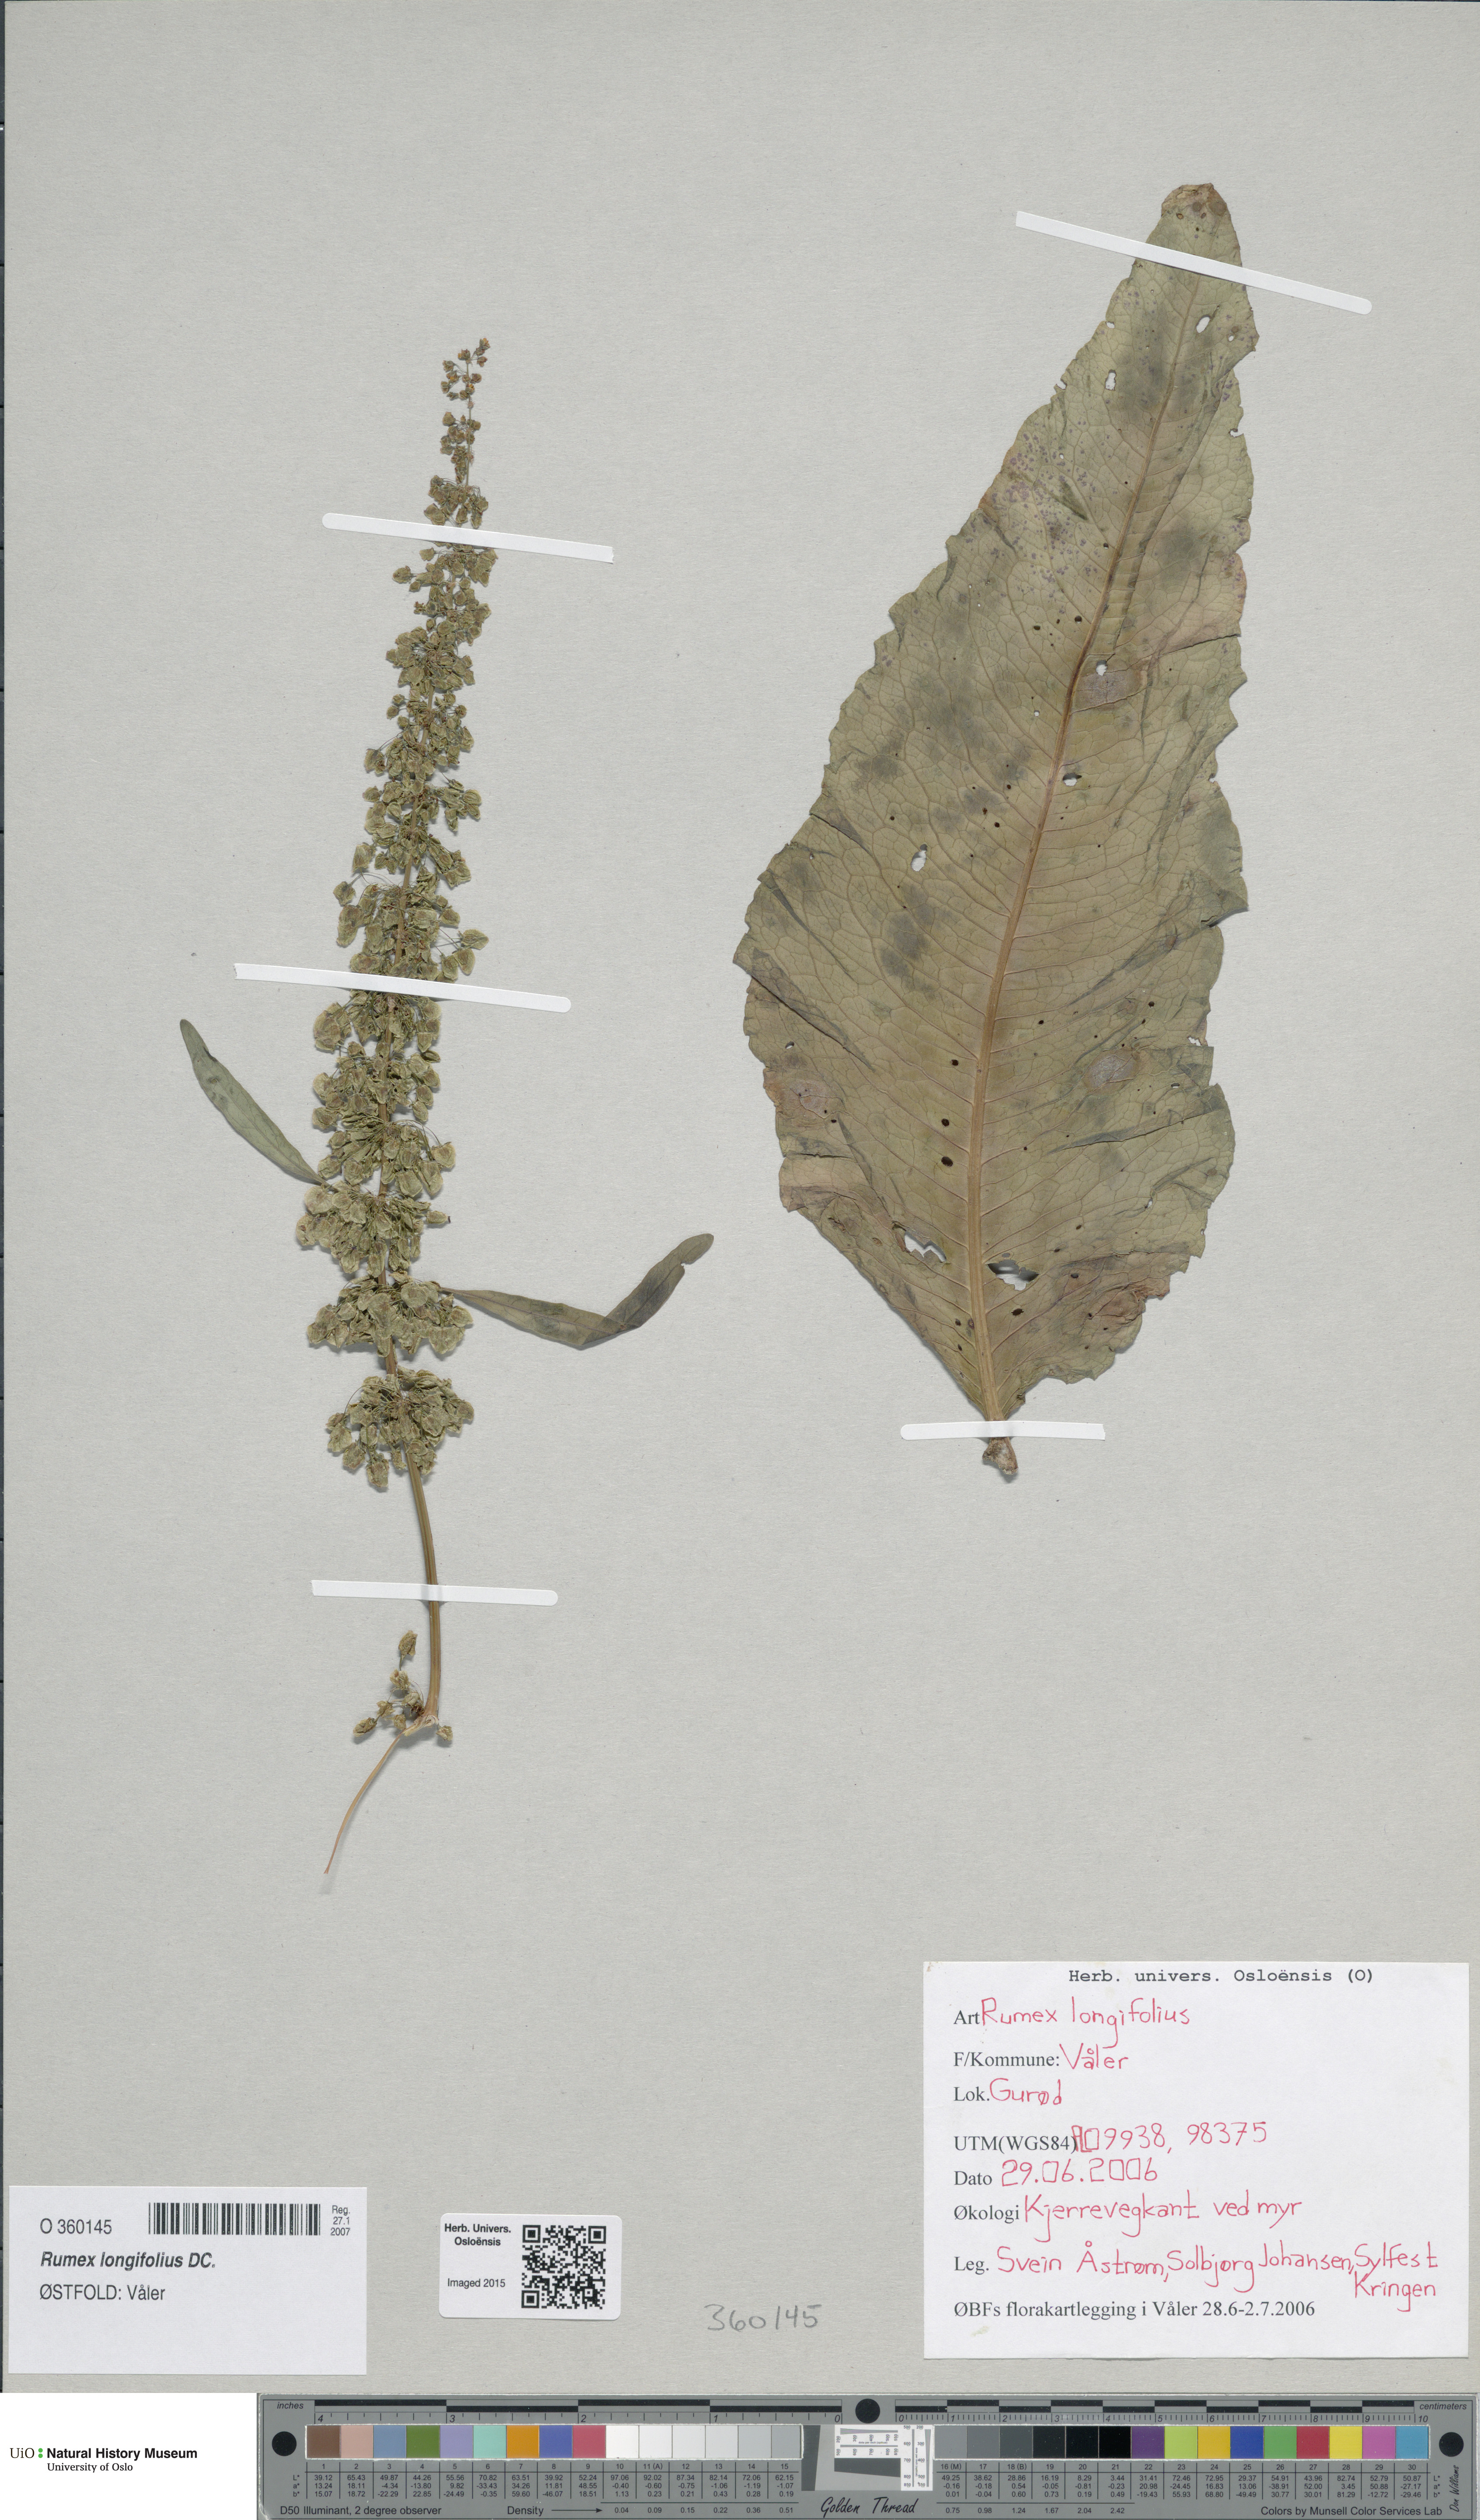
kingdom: Plantae
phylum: Tracheophyta
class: Magnoliopsida
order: Caryophyllales
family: Polygonaceae
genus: Rumex
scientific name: Rumex longifolius
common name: Dooryard dock
